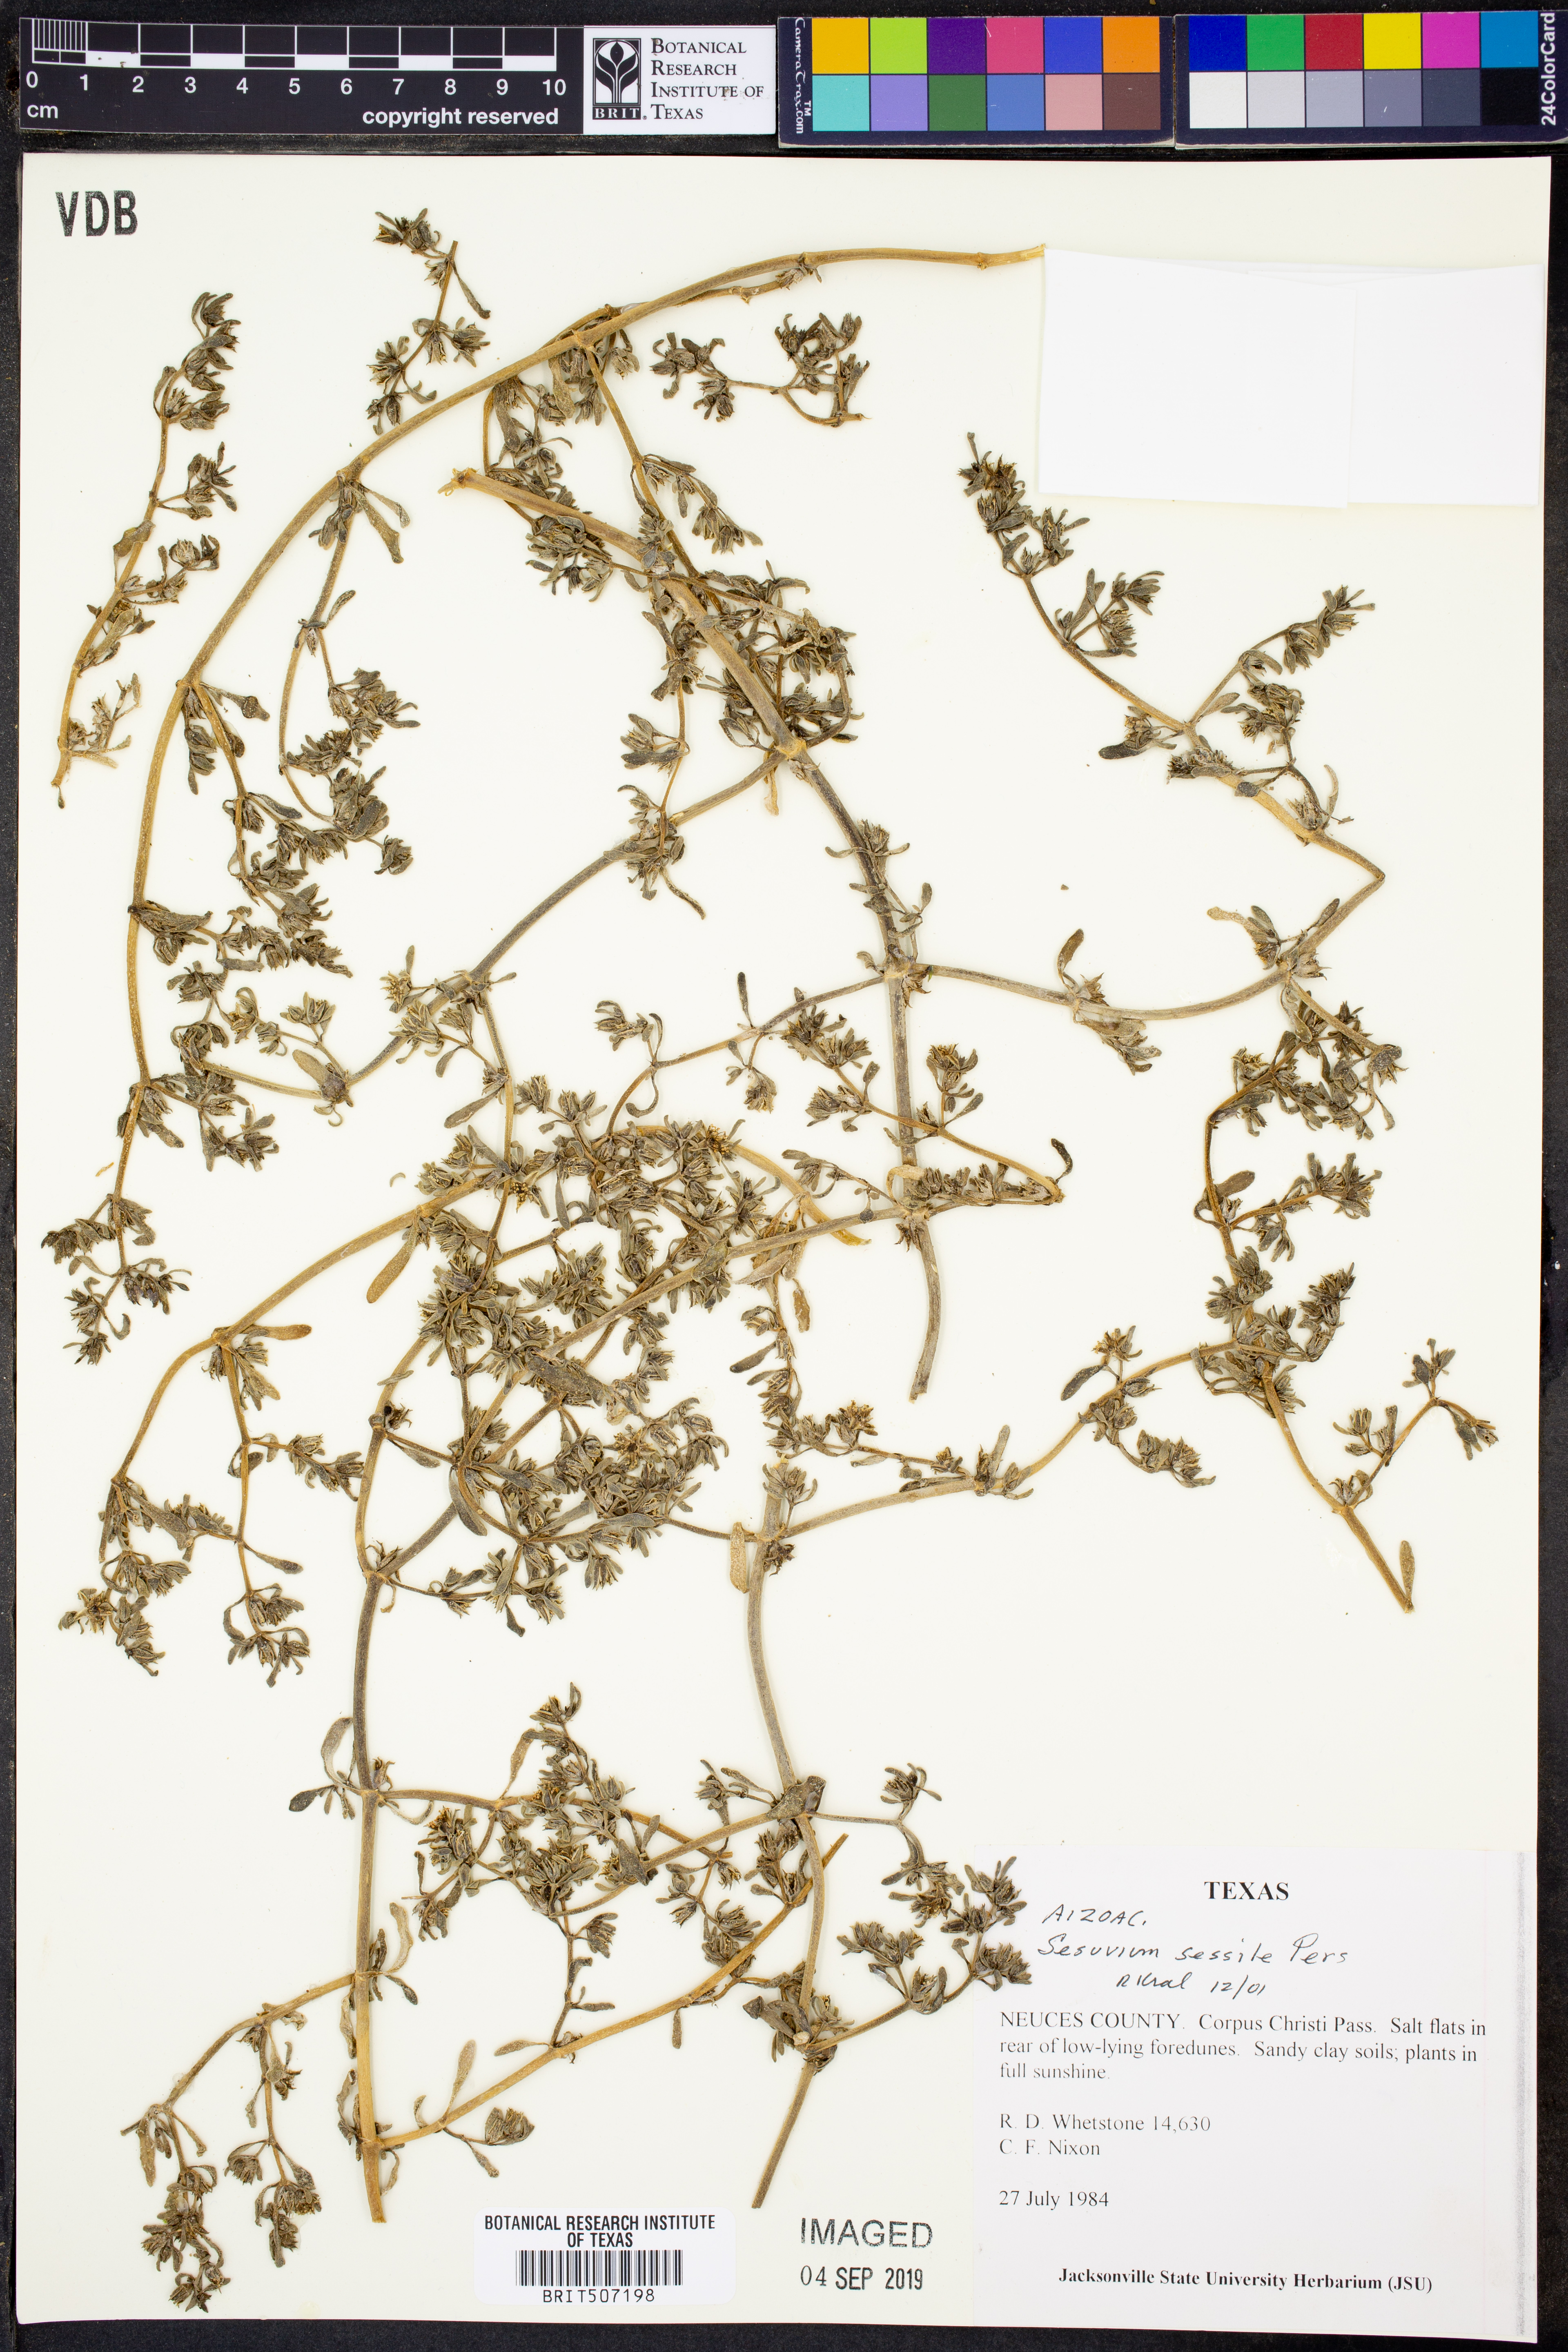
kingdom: Plantae
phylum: Tracheophyta
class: Magnoliopsida
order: Caryophyllales
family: Aizoaceae
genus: Sesuvium
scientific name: Sesuvium portulacastrum
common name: Sea-purslane
